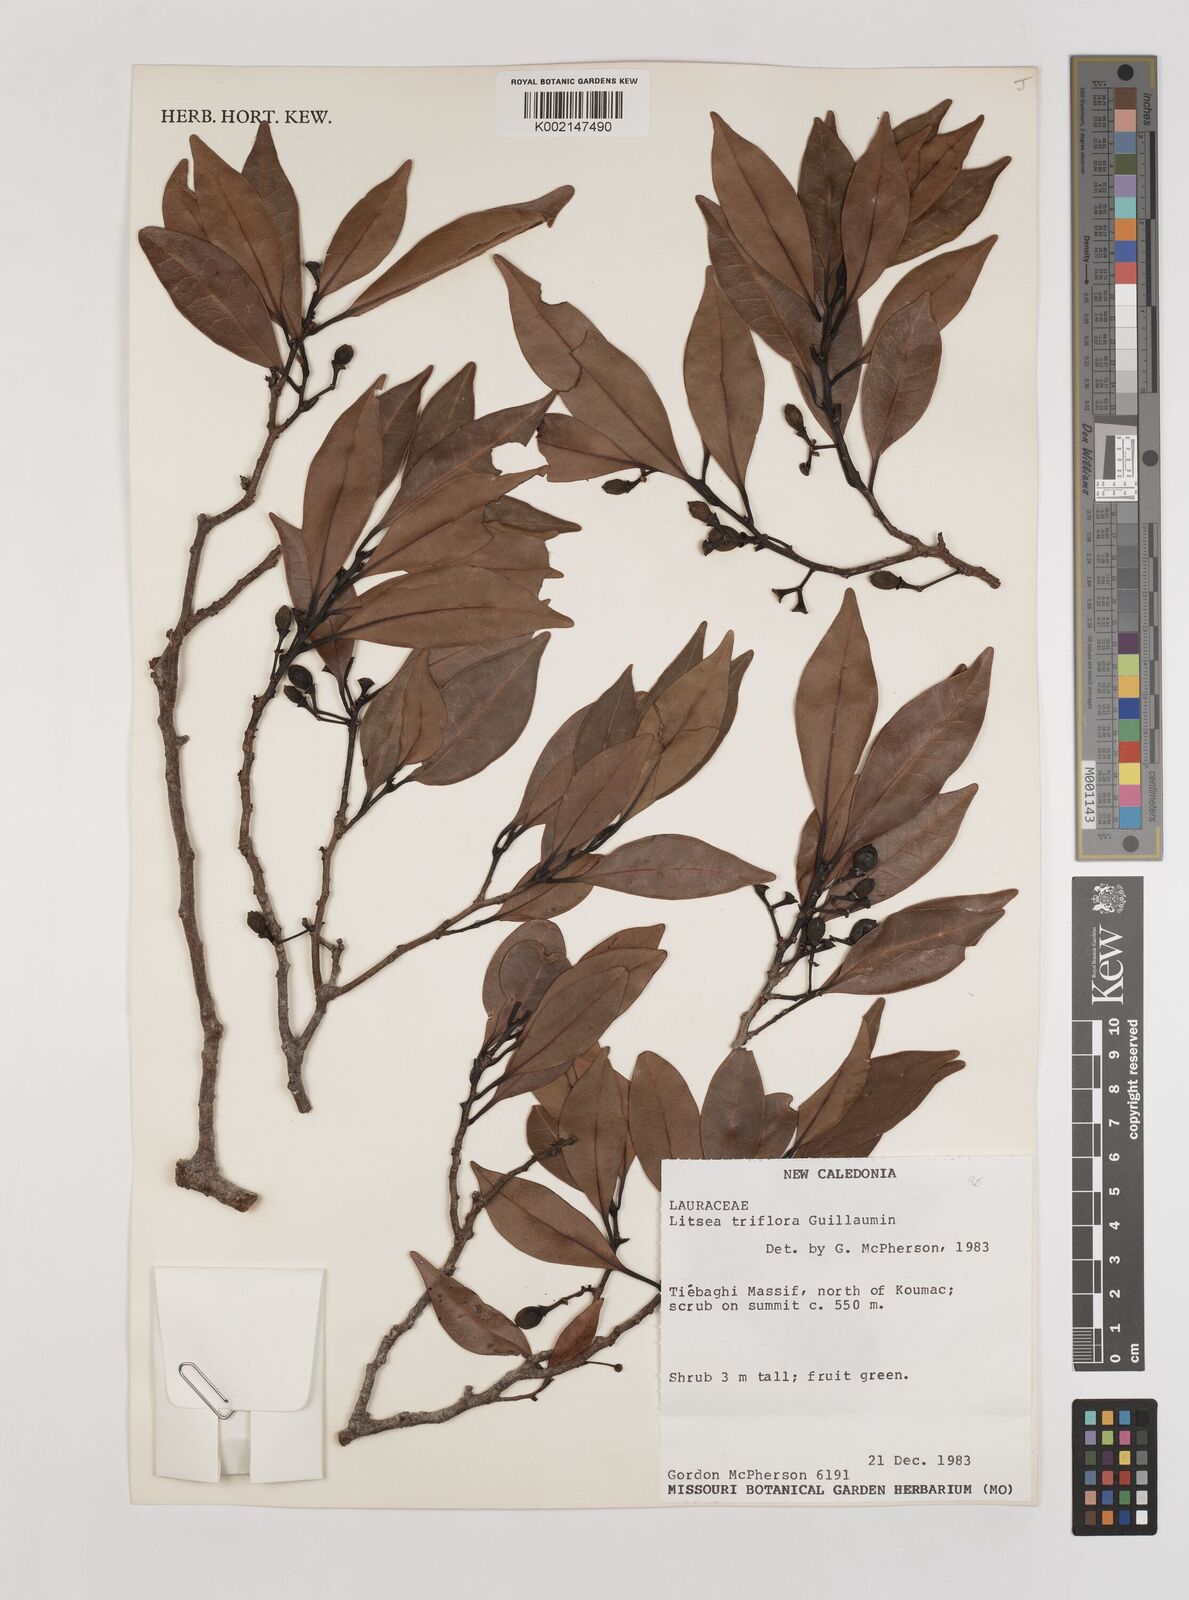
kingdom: Plantae
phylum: Tracheophyta
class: Magnoliopsida
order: Laurales
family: Lauraceae
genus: Litsea
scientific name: Litsea triflora
